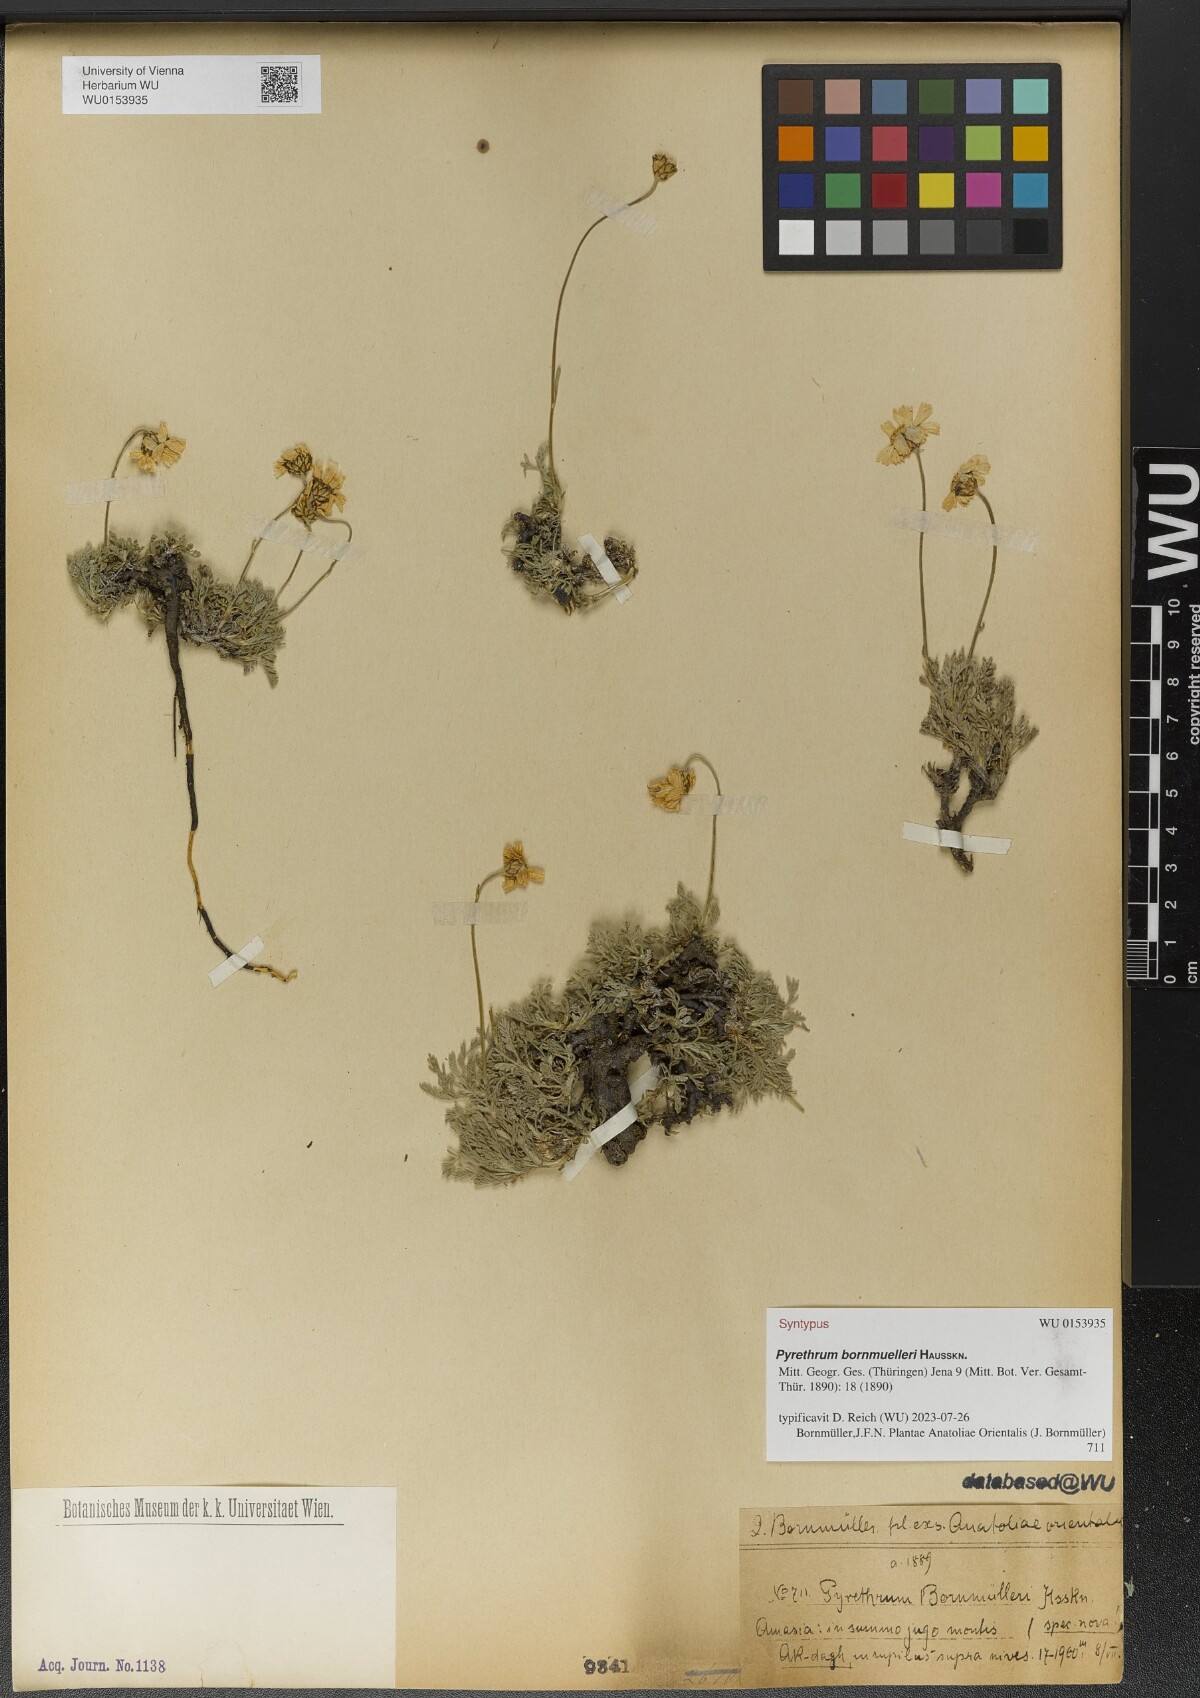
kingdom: Plantae
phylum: Tracheophyta
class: Magnoliopsida
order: Asterales
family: Asteraceae
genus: Tanacetum
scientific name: Tanacetum Pyrethrum bornmuelleri
